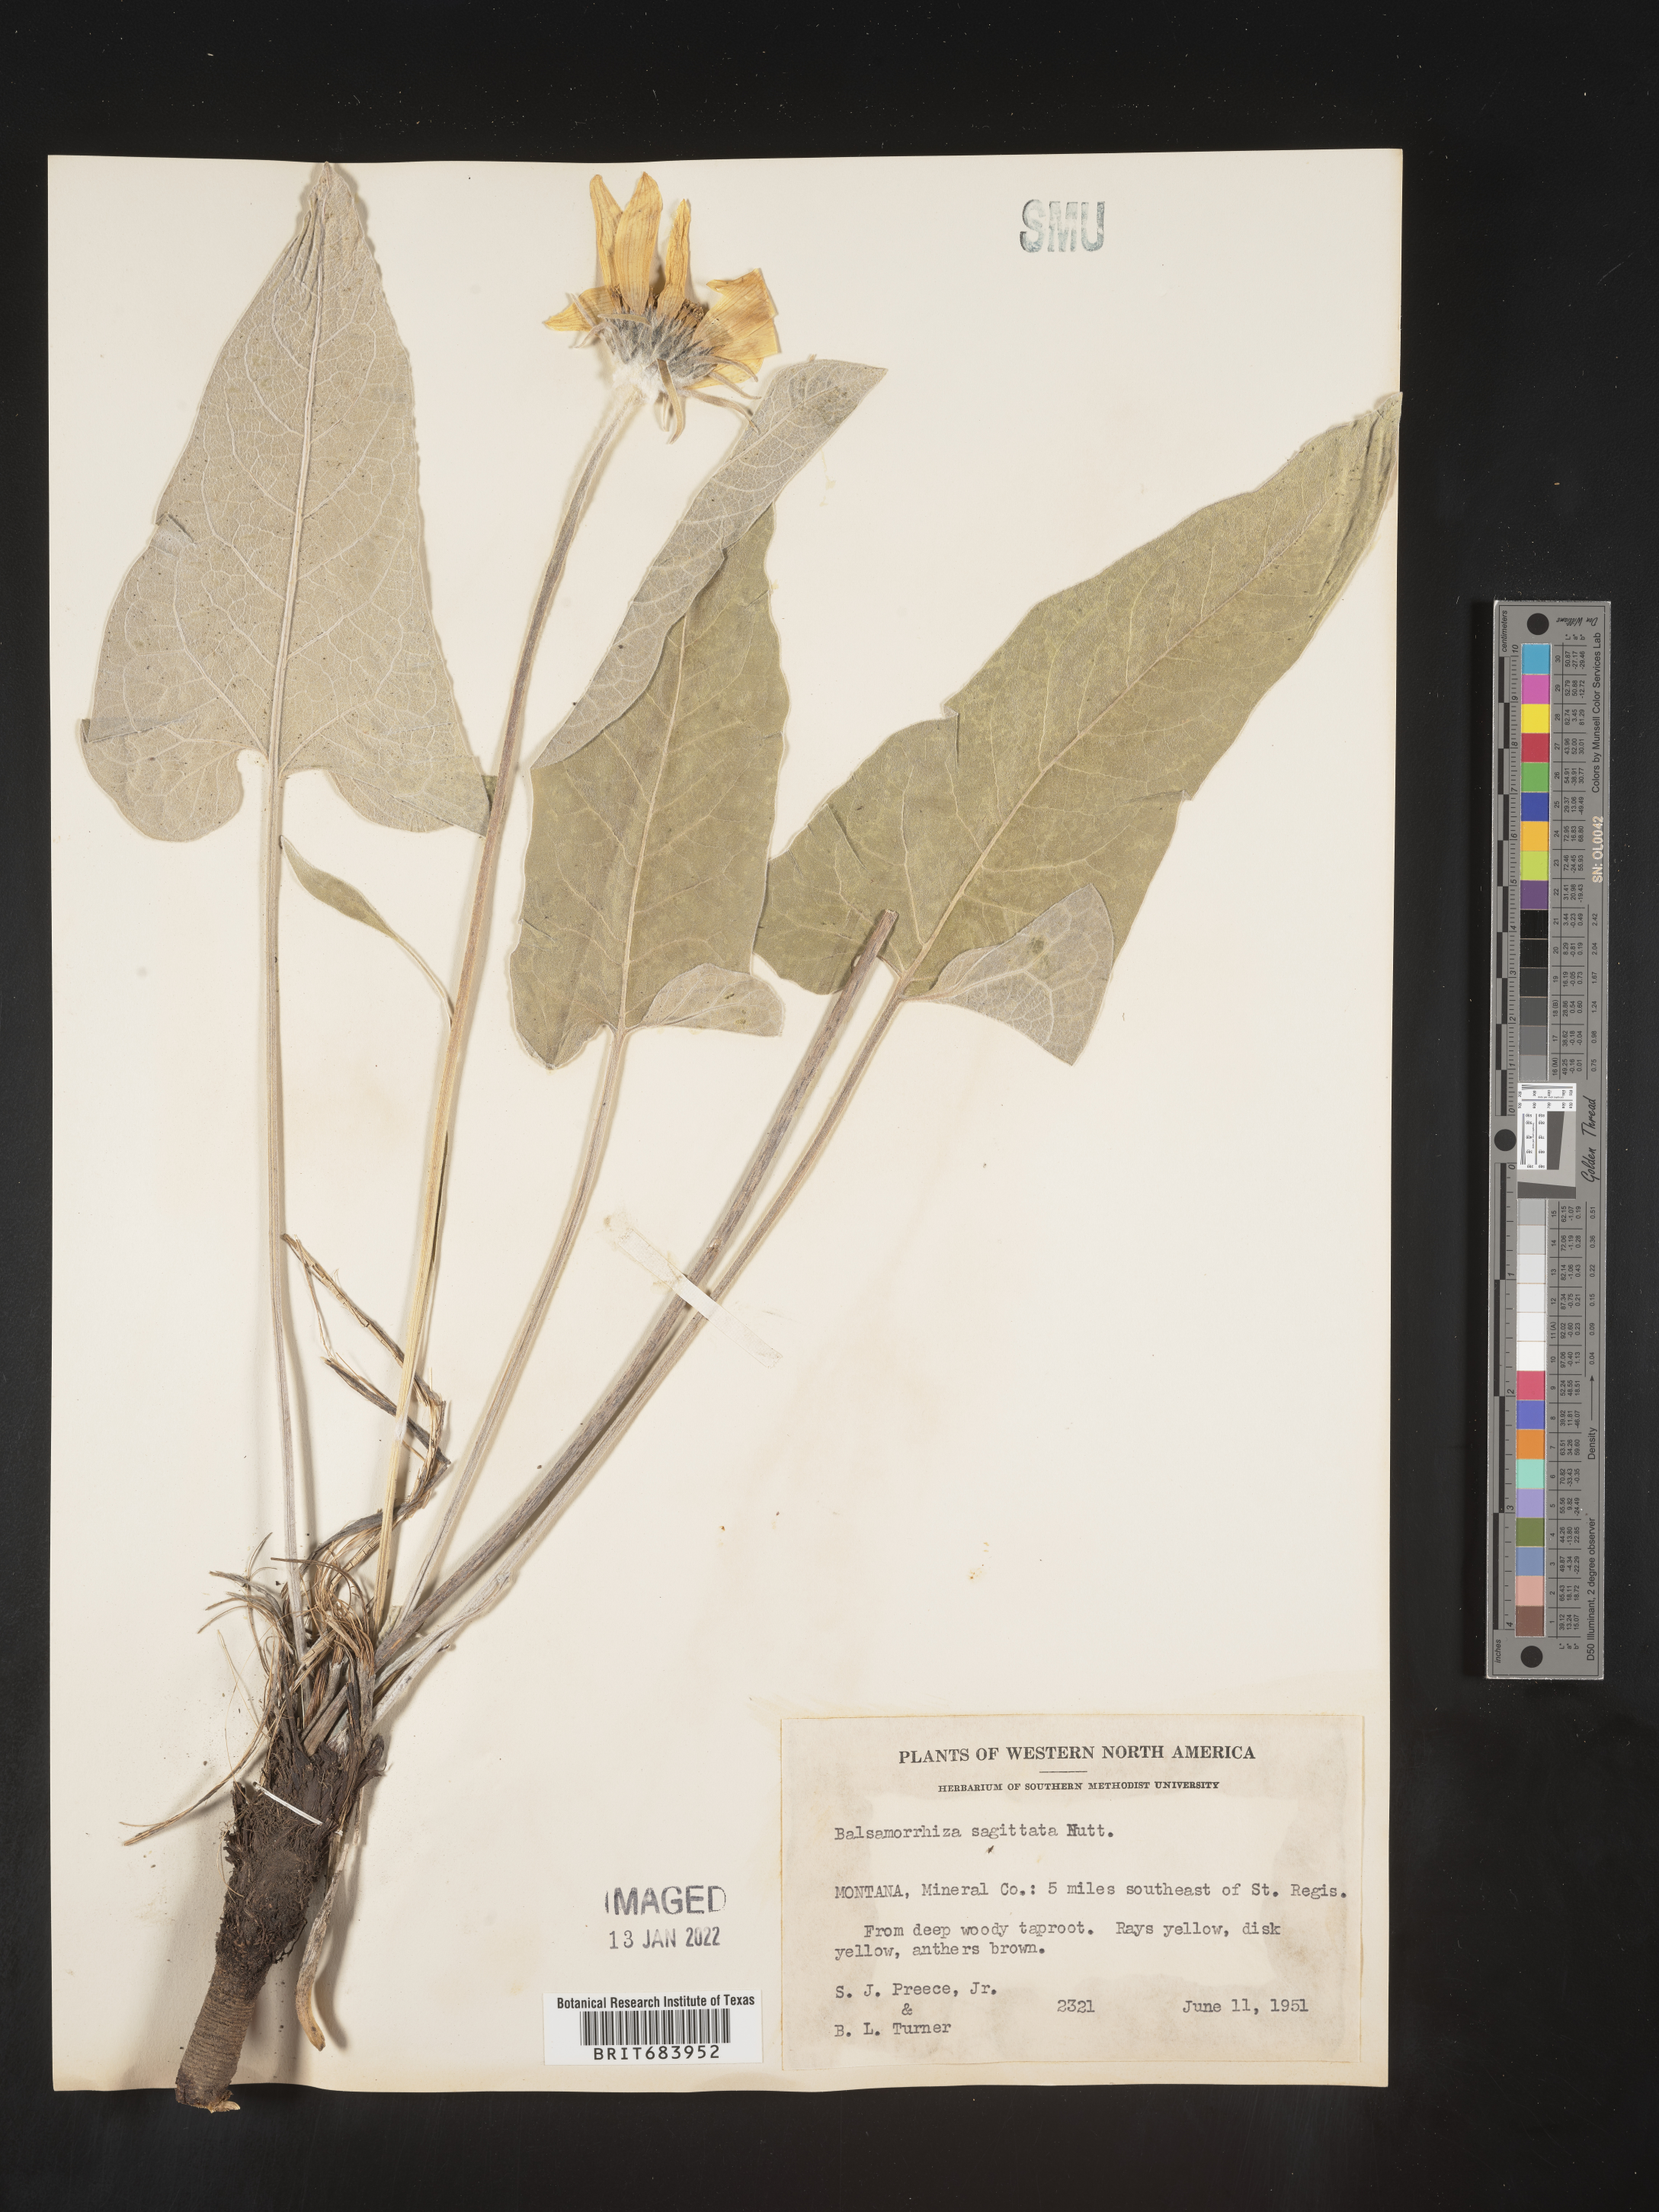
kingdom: Plantae
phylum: Tracheophyta
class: Magnoliopsida
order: Asterales
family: Asteraceae
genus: Wyethia
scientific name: Wyethia sagittata
